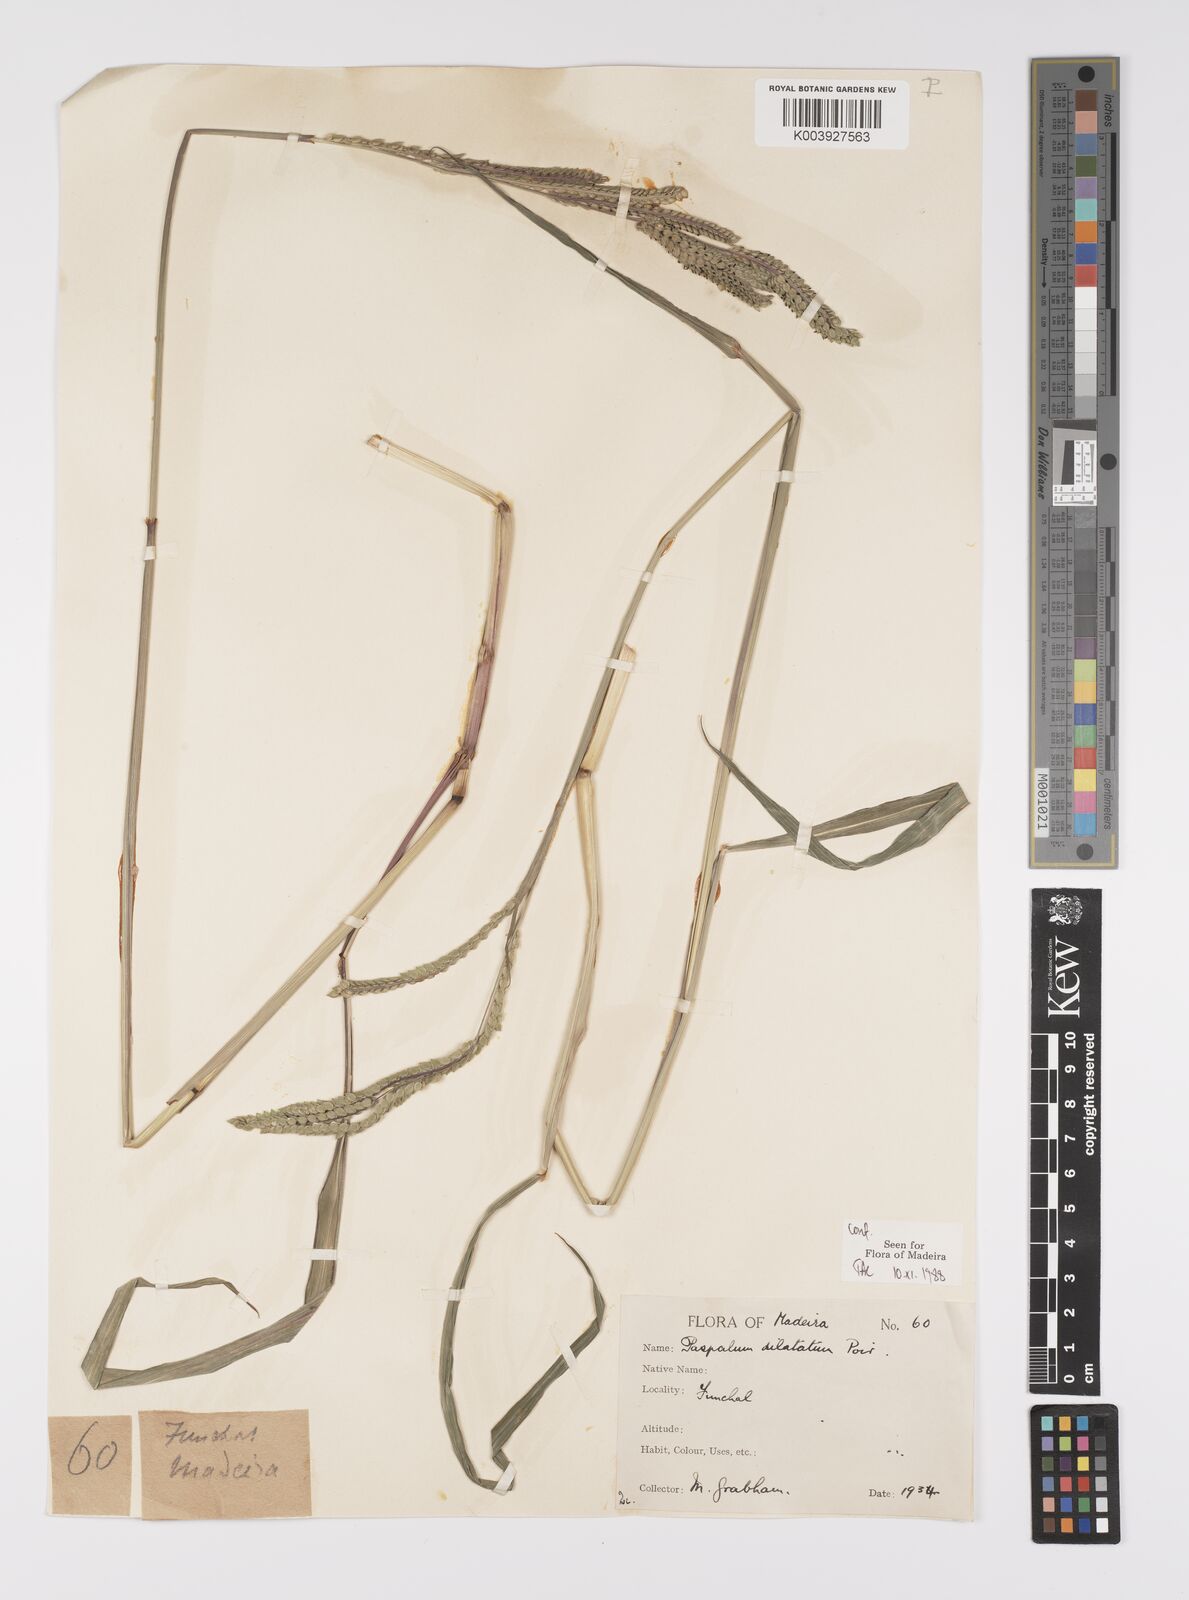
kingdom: Plantae
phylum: Tracheophyta
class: Liliopsida
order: Poales
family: Poaceae
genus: Paspalum
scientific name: Paspalum
